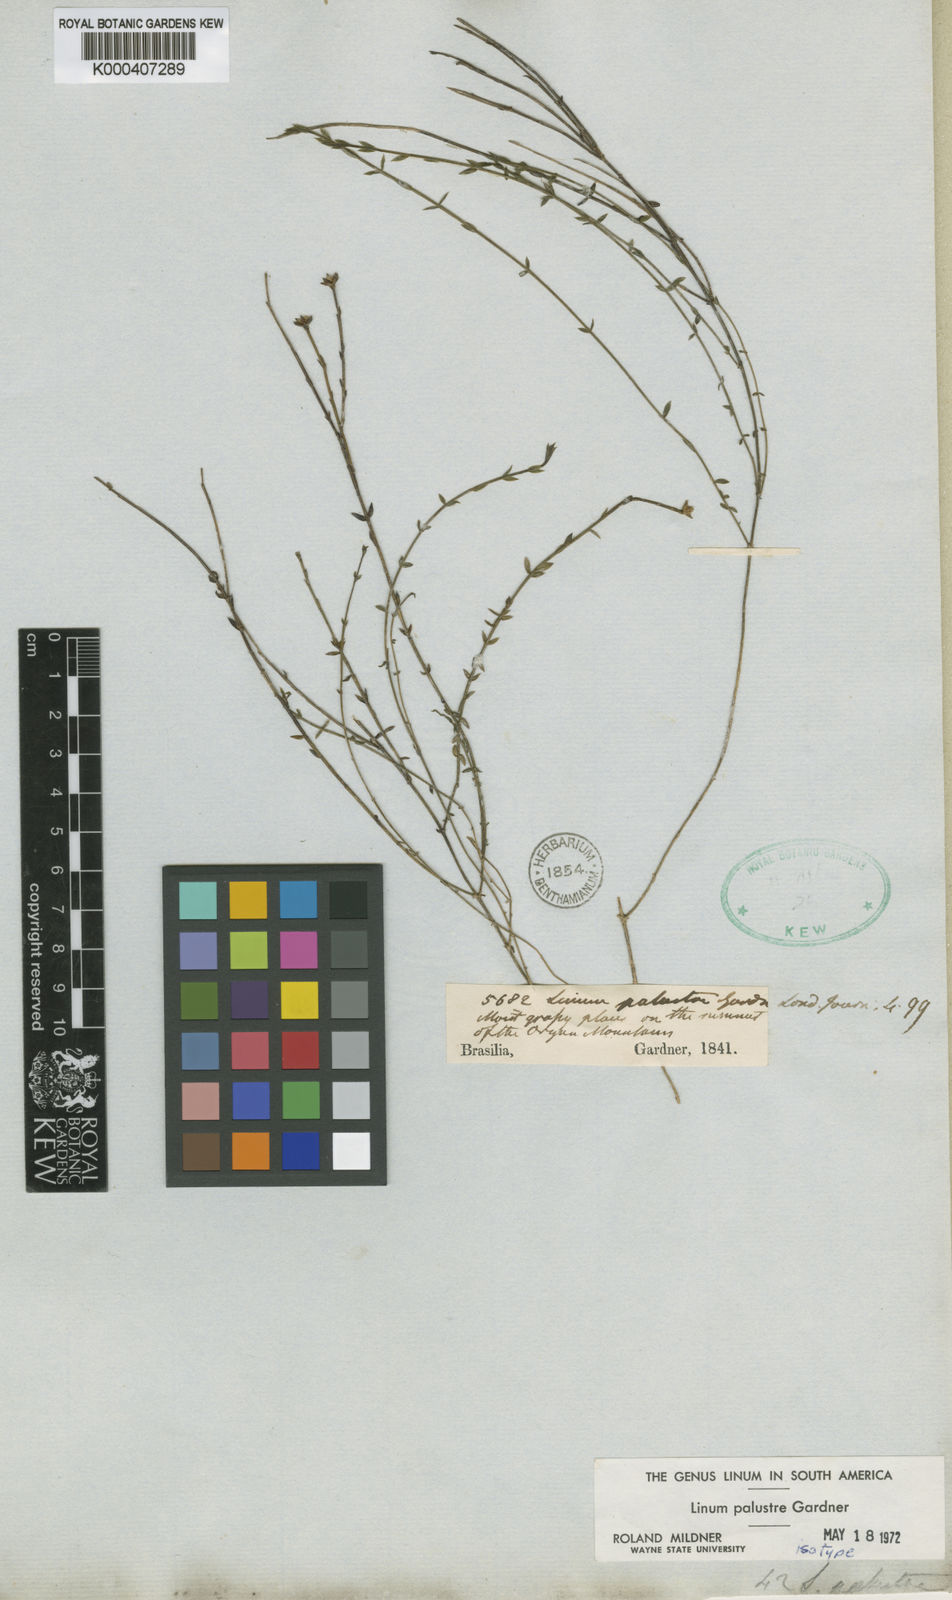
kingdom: Plantae
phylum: Tracheophyta
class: Magnoliopsida
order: Malpighiales
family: Linaceae
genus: Linum
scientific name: Linum littorale
